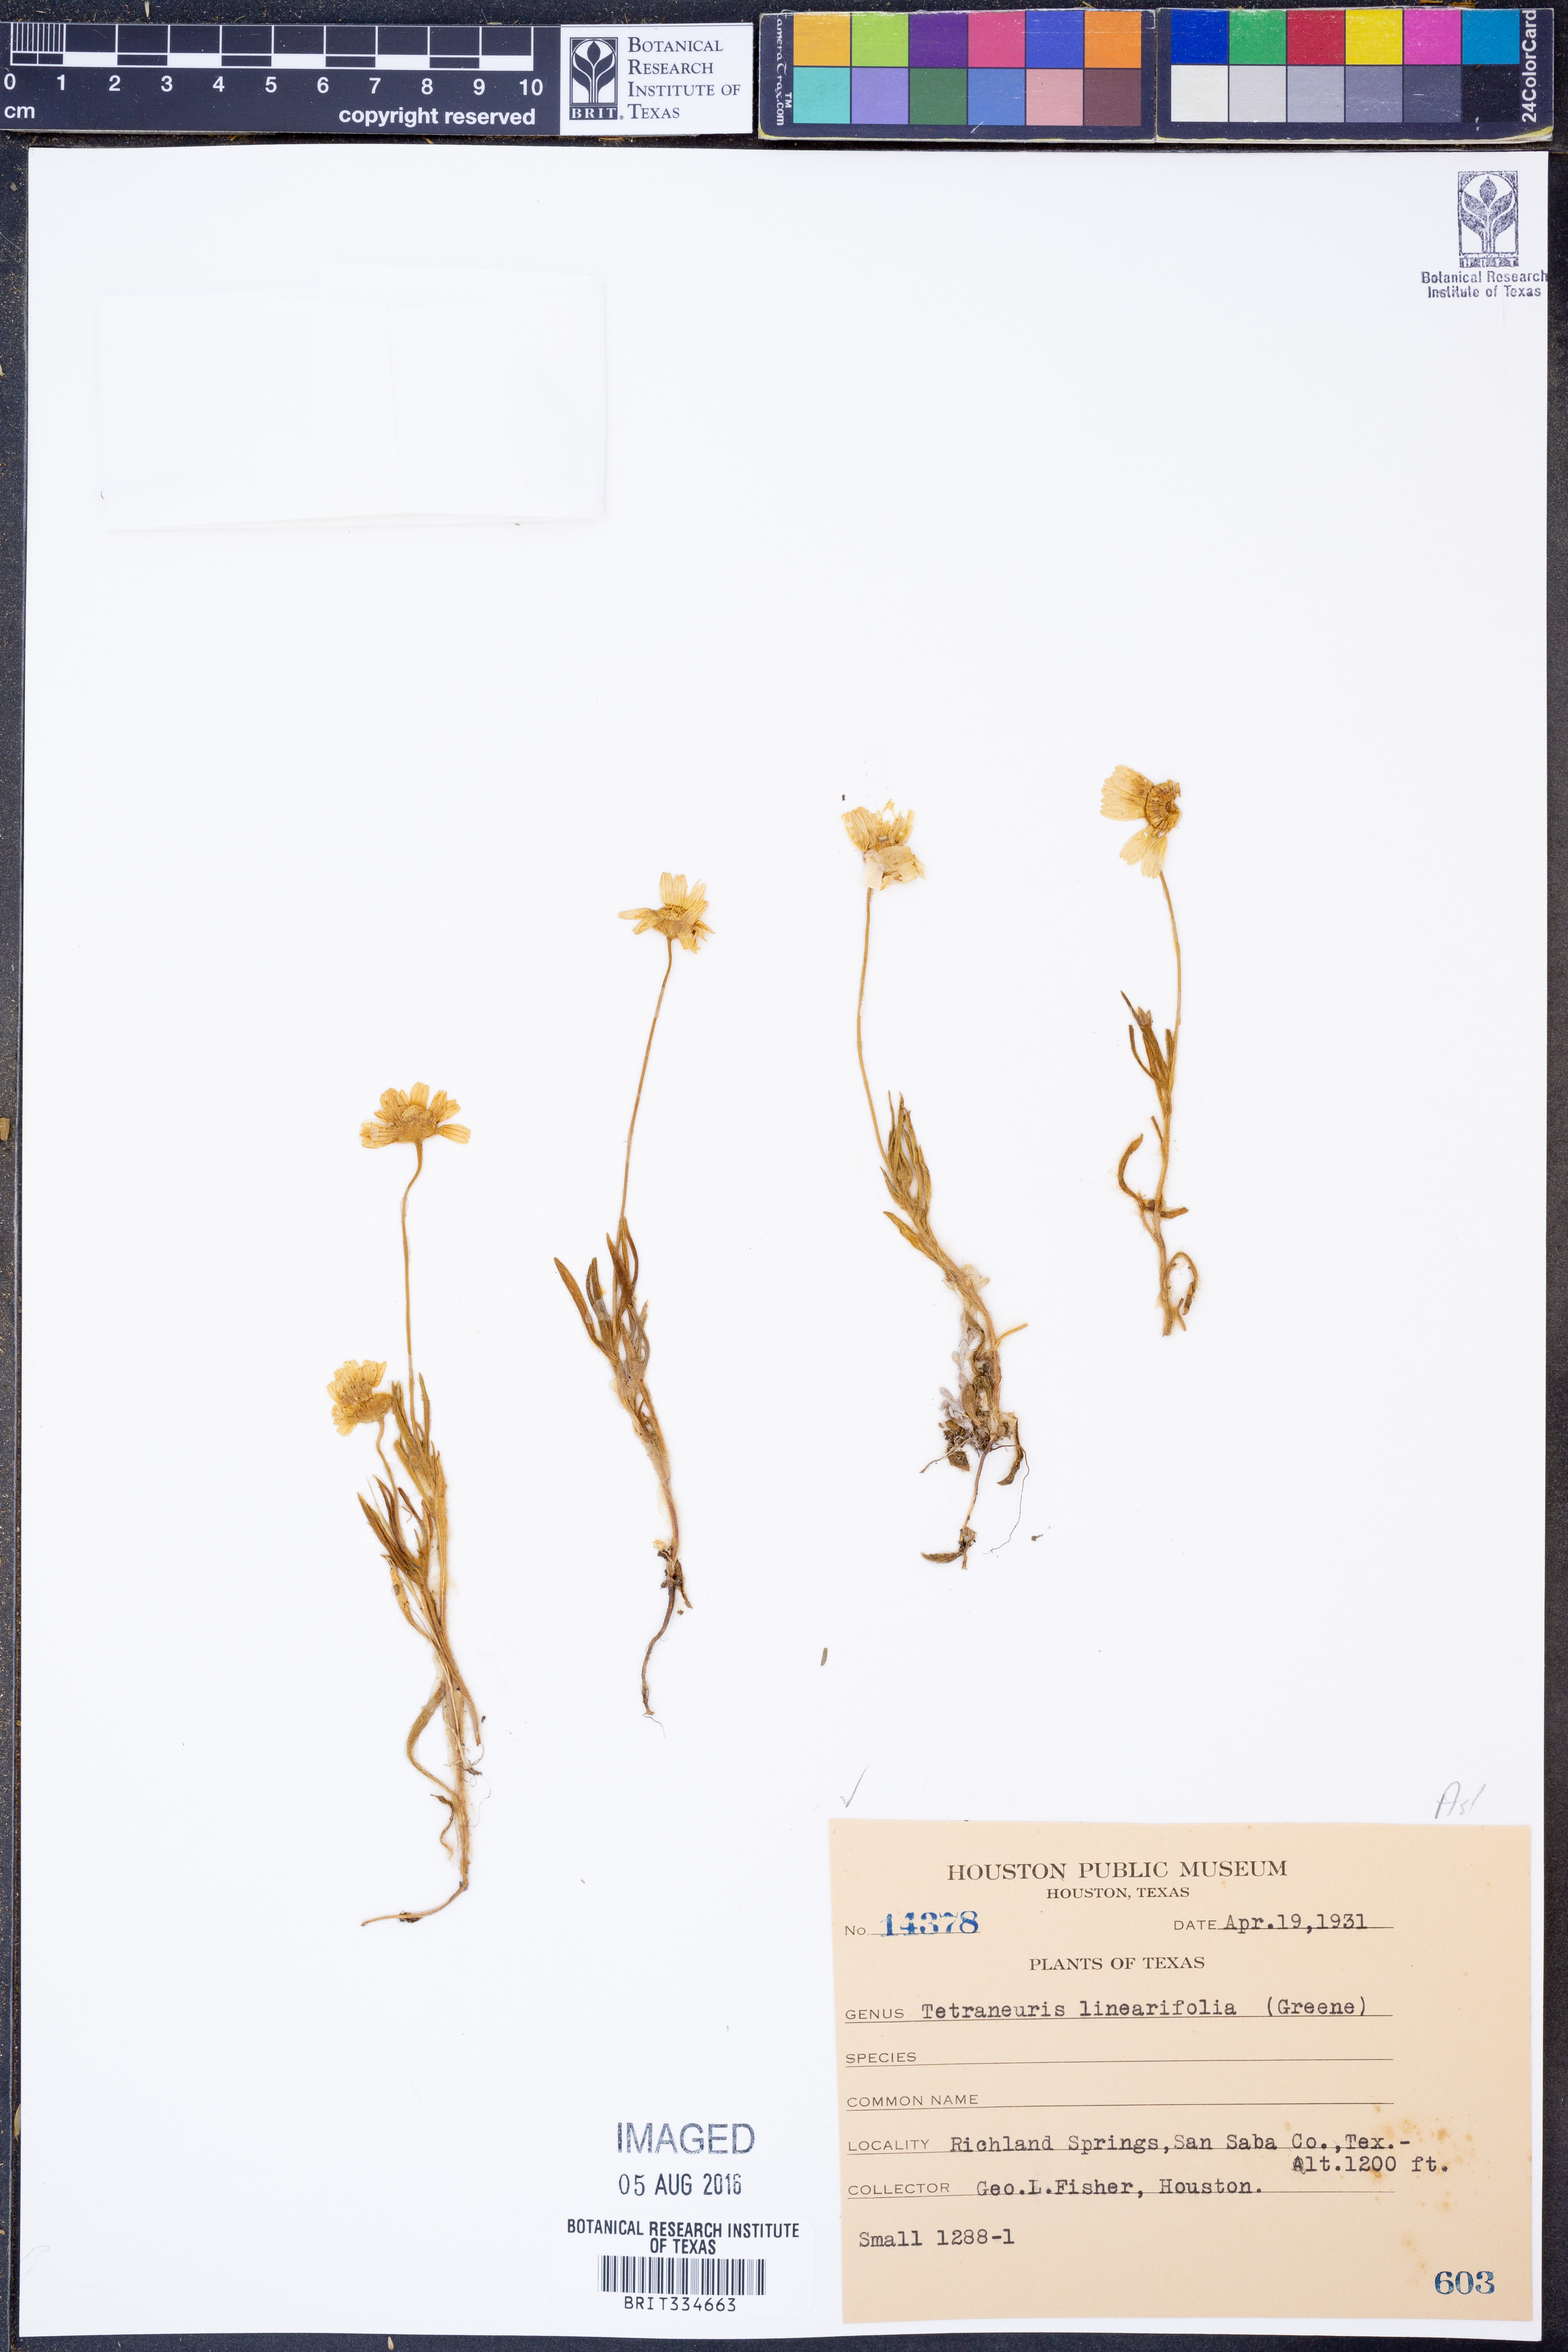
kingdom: Plantae
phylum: Tracheophyta
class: Magnoliopsida
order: Asterales
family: Asteraceae
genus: Tetraneuris
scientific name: Tetraneuris linearifolia
